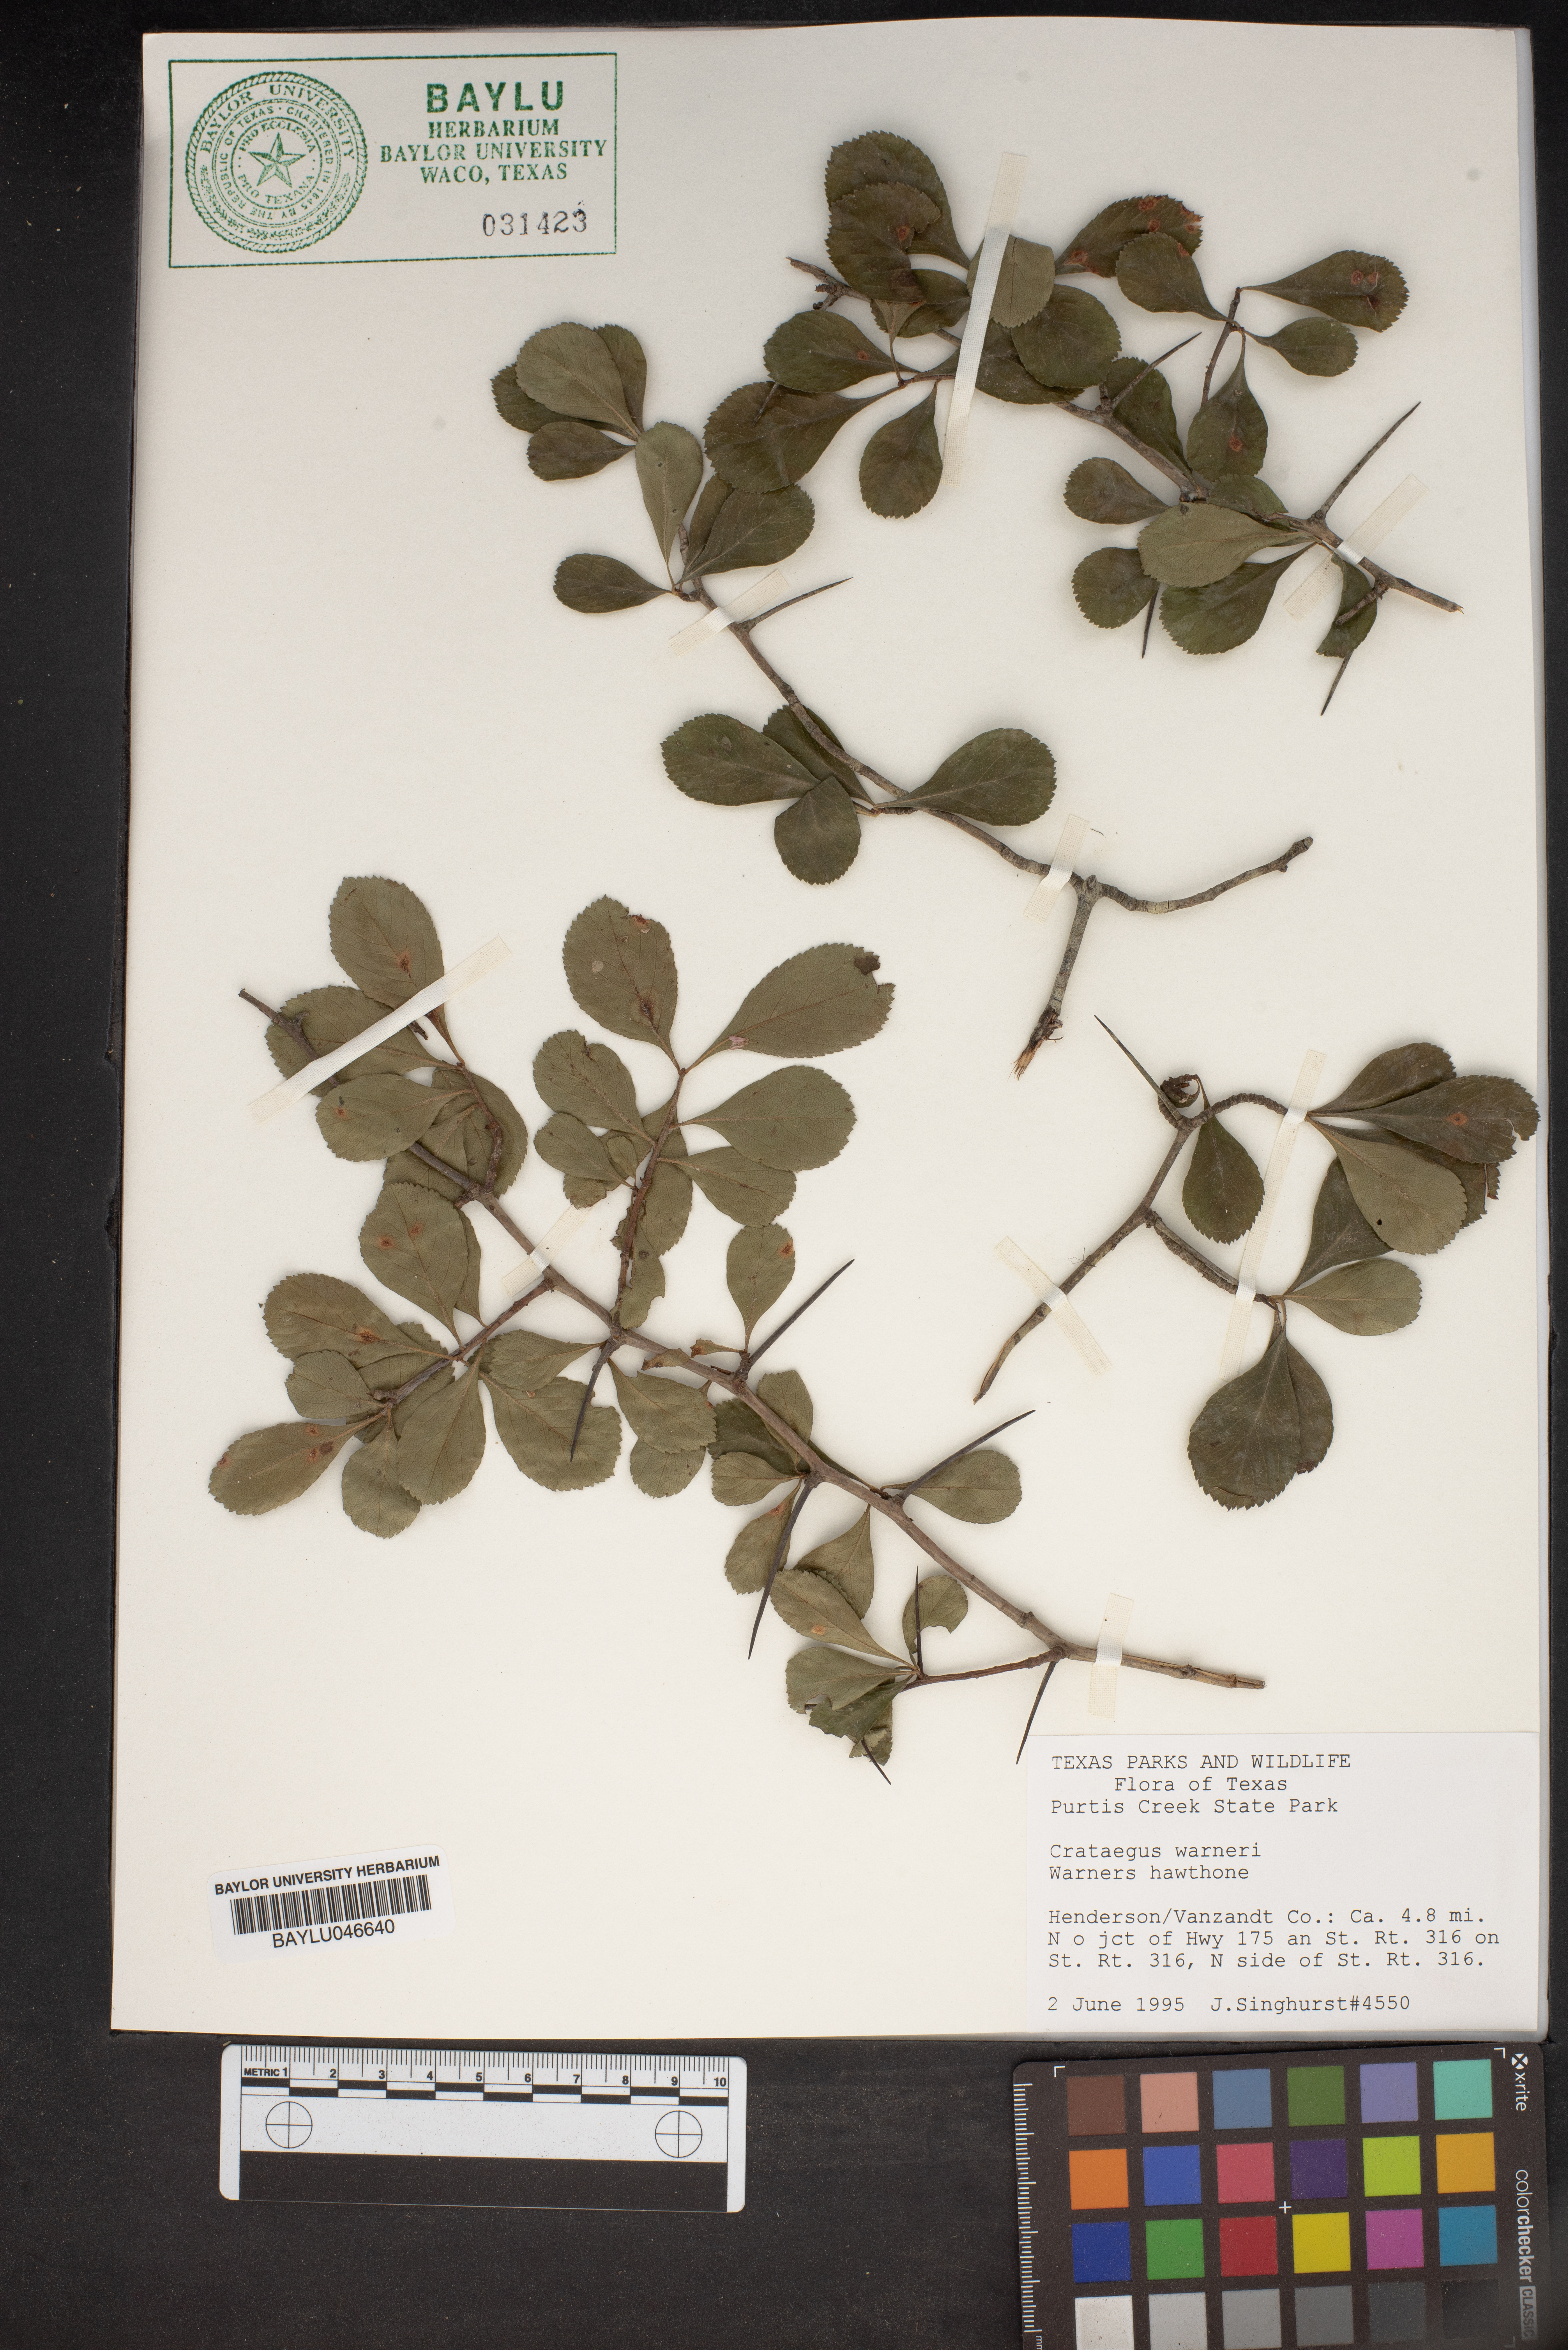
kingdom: Plantae
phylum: Tracheophyta
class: Magnoliopsida
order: Rosales
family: Rosaceae
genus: Crataegus
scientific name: Crataegus warneri
